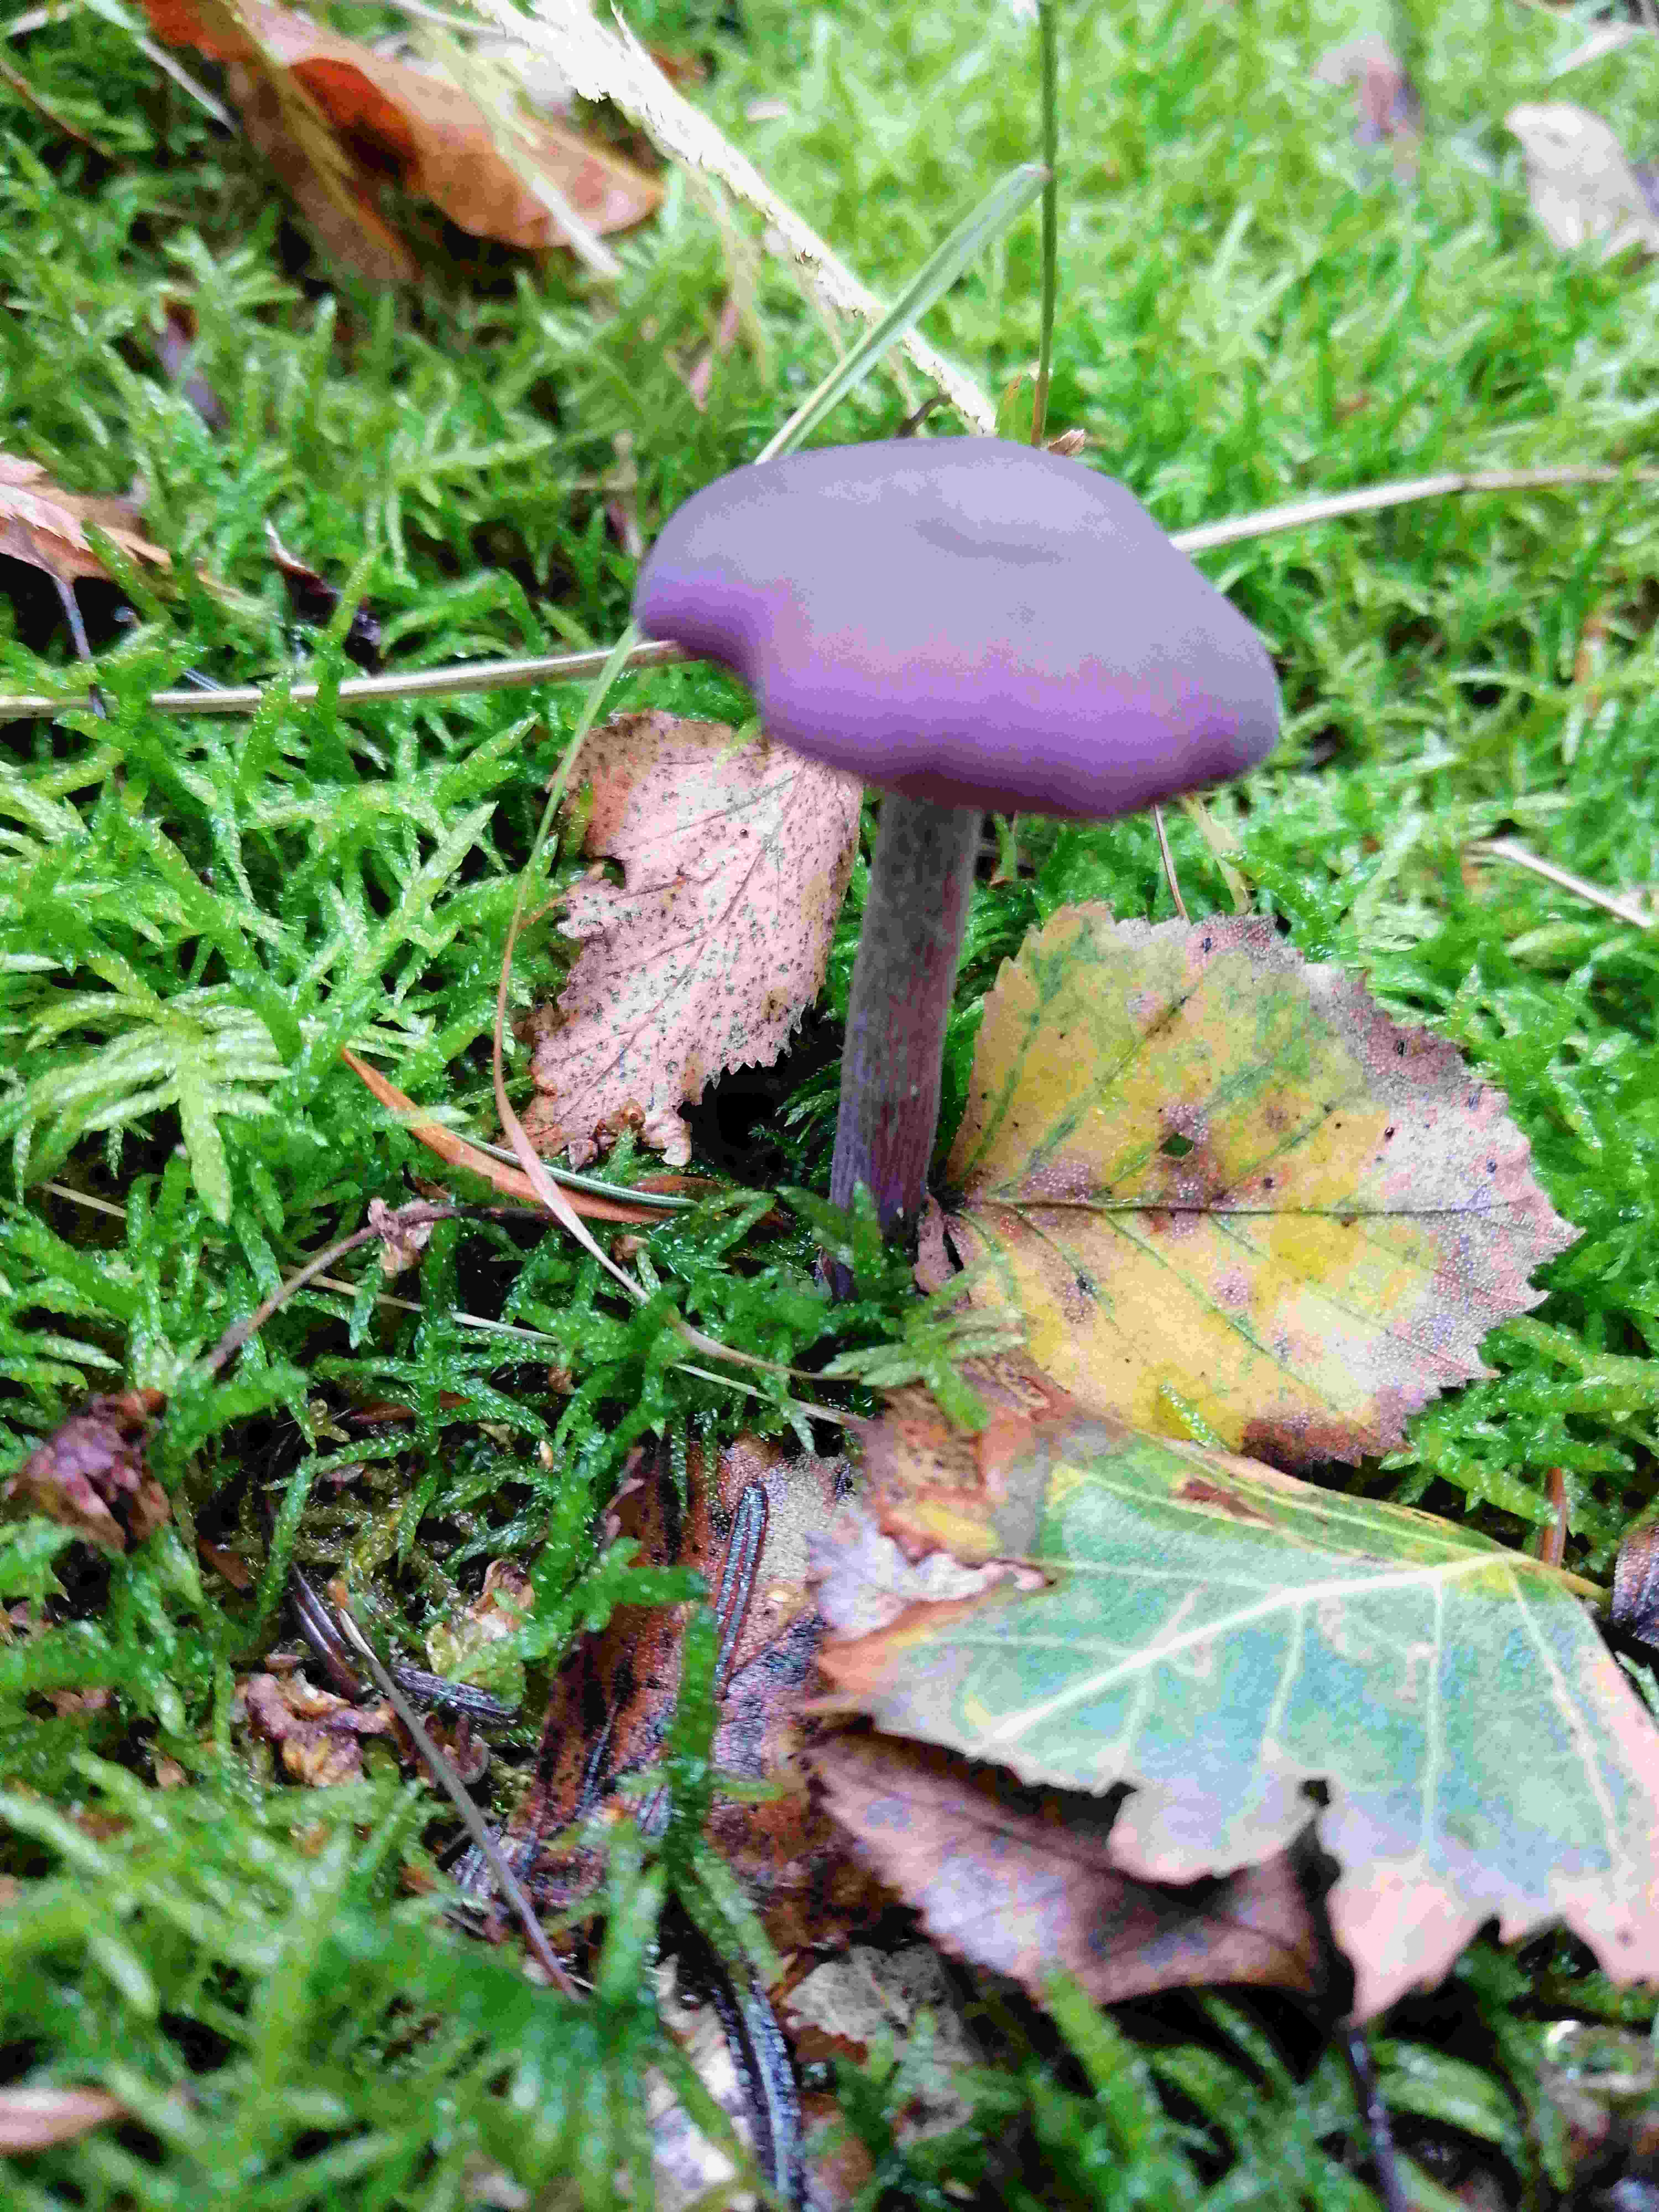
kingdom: Fungi
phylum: Basidiomycota
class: Agaricomycetes
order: Agaricales
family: Hydnangiaceae
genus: Laccaria
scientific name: Laccaria amethystina
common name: violet ametysthat
